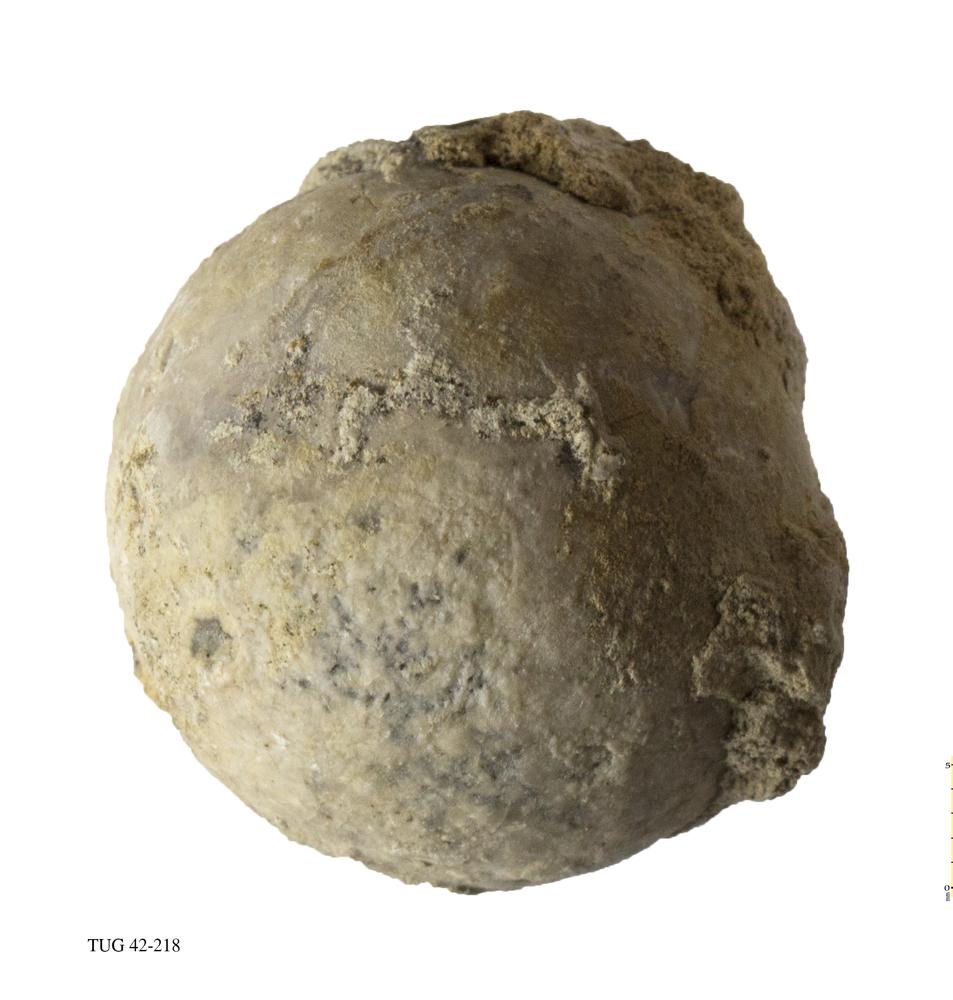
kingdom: Animalia
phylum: Echinodermata
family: Echinosphaeritidae
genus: Echinosphaerites
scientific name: Echinosphaerites Echinus aurantium
